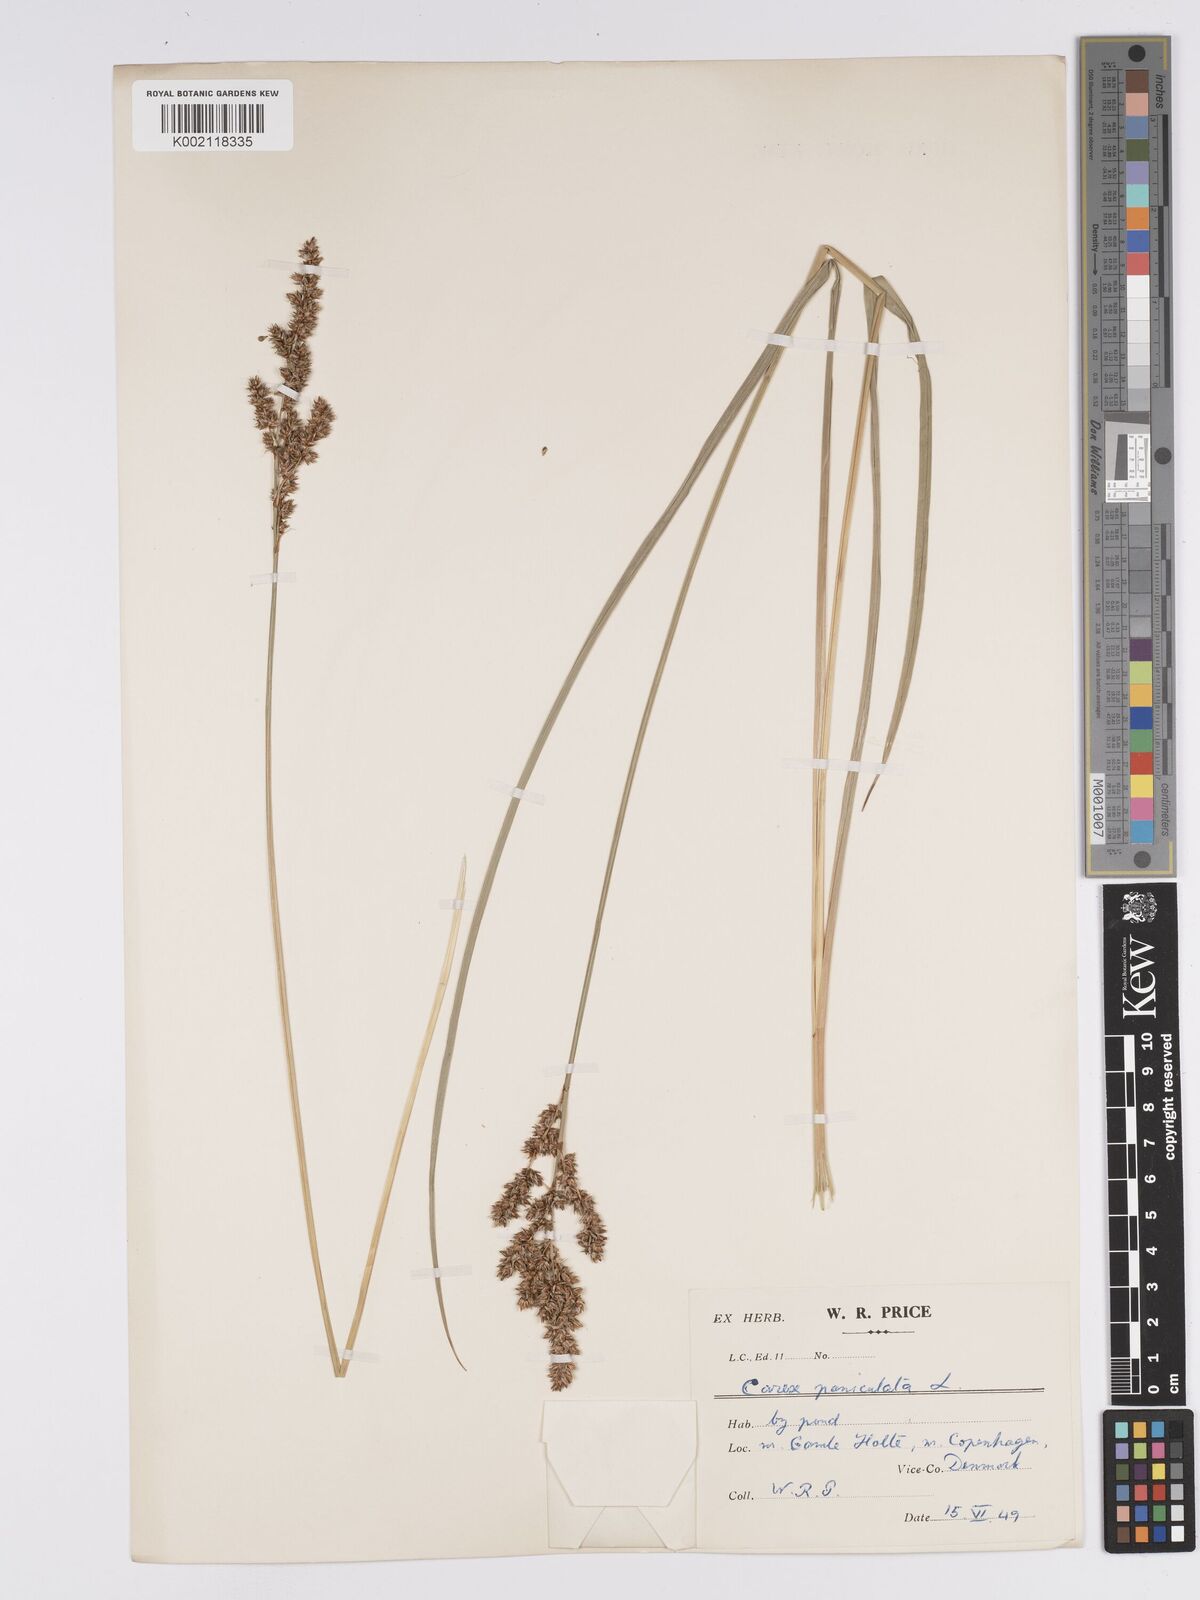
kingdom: Plantae
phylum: Tracheophyta
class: Liliopsida
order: Poales
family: Cyperaceae
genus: Carex
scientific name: Carex paniculata
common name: Greater tussock-sedge
